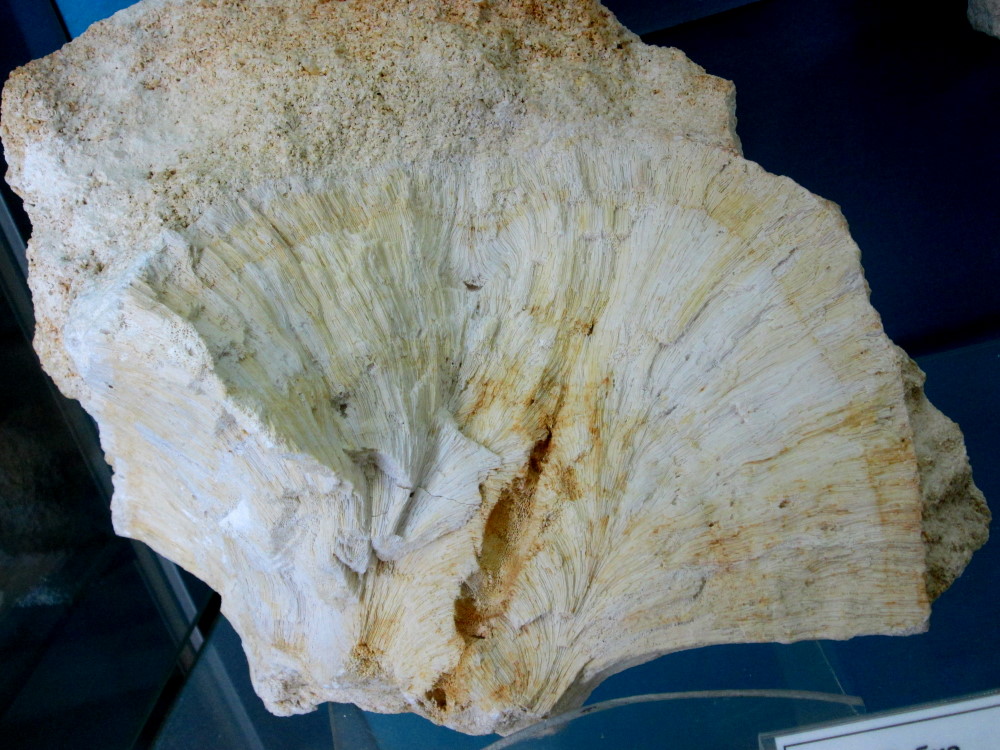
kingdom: Animalia
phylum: Porifera
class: Demospongiae
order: Suberitida
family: Suberitidae
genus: Chaetetes
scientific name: Chaetetes radians
